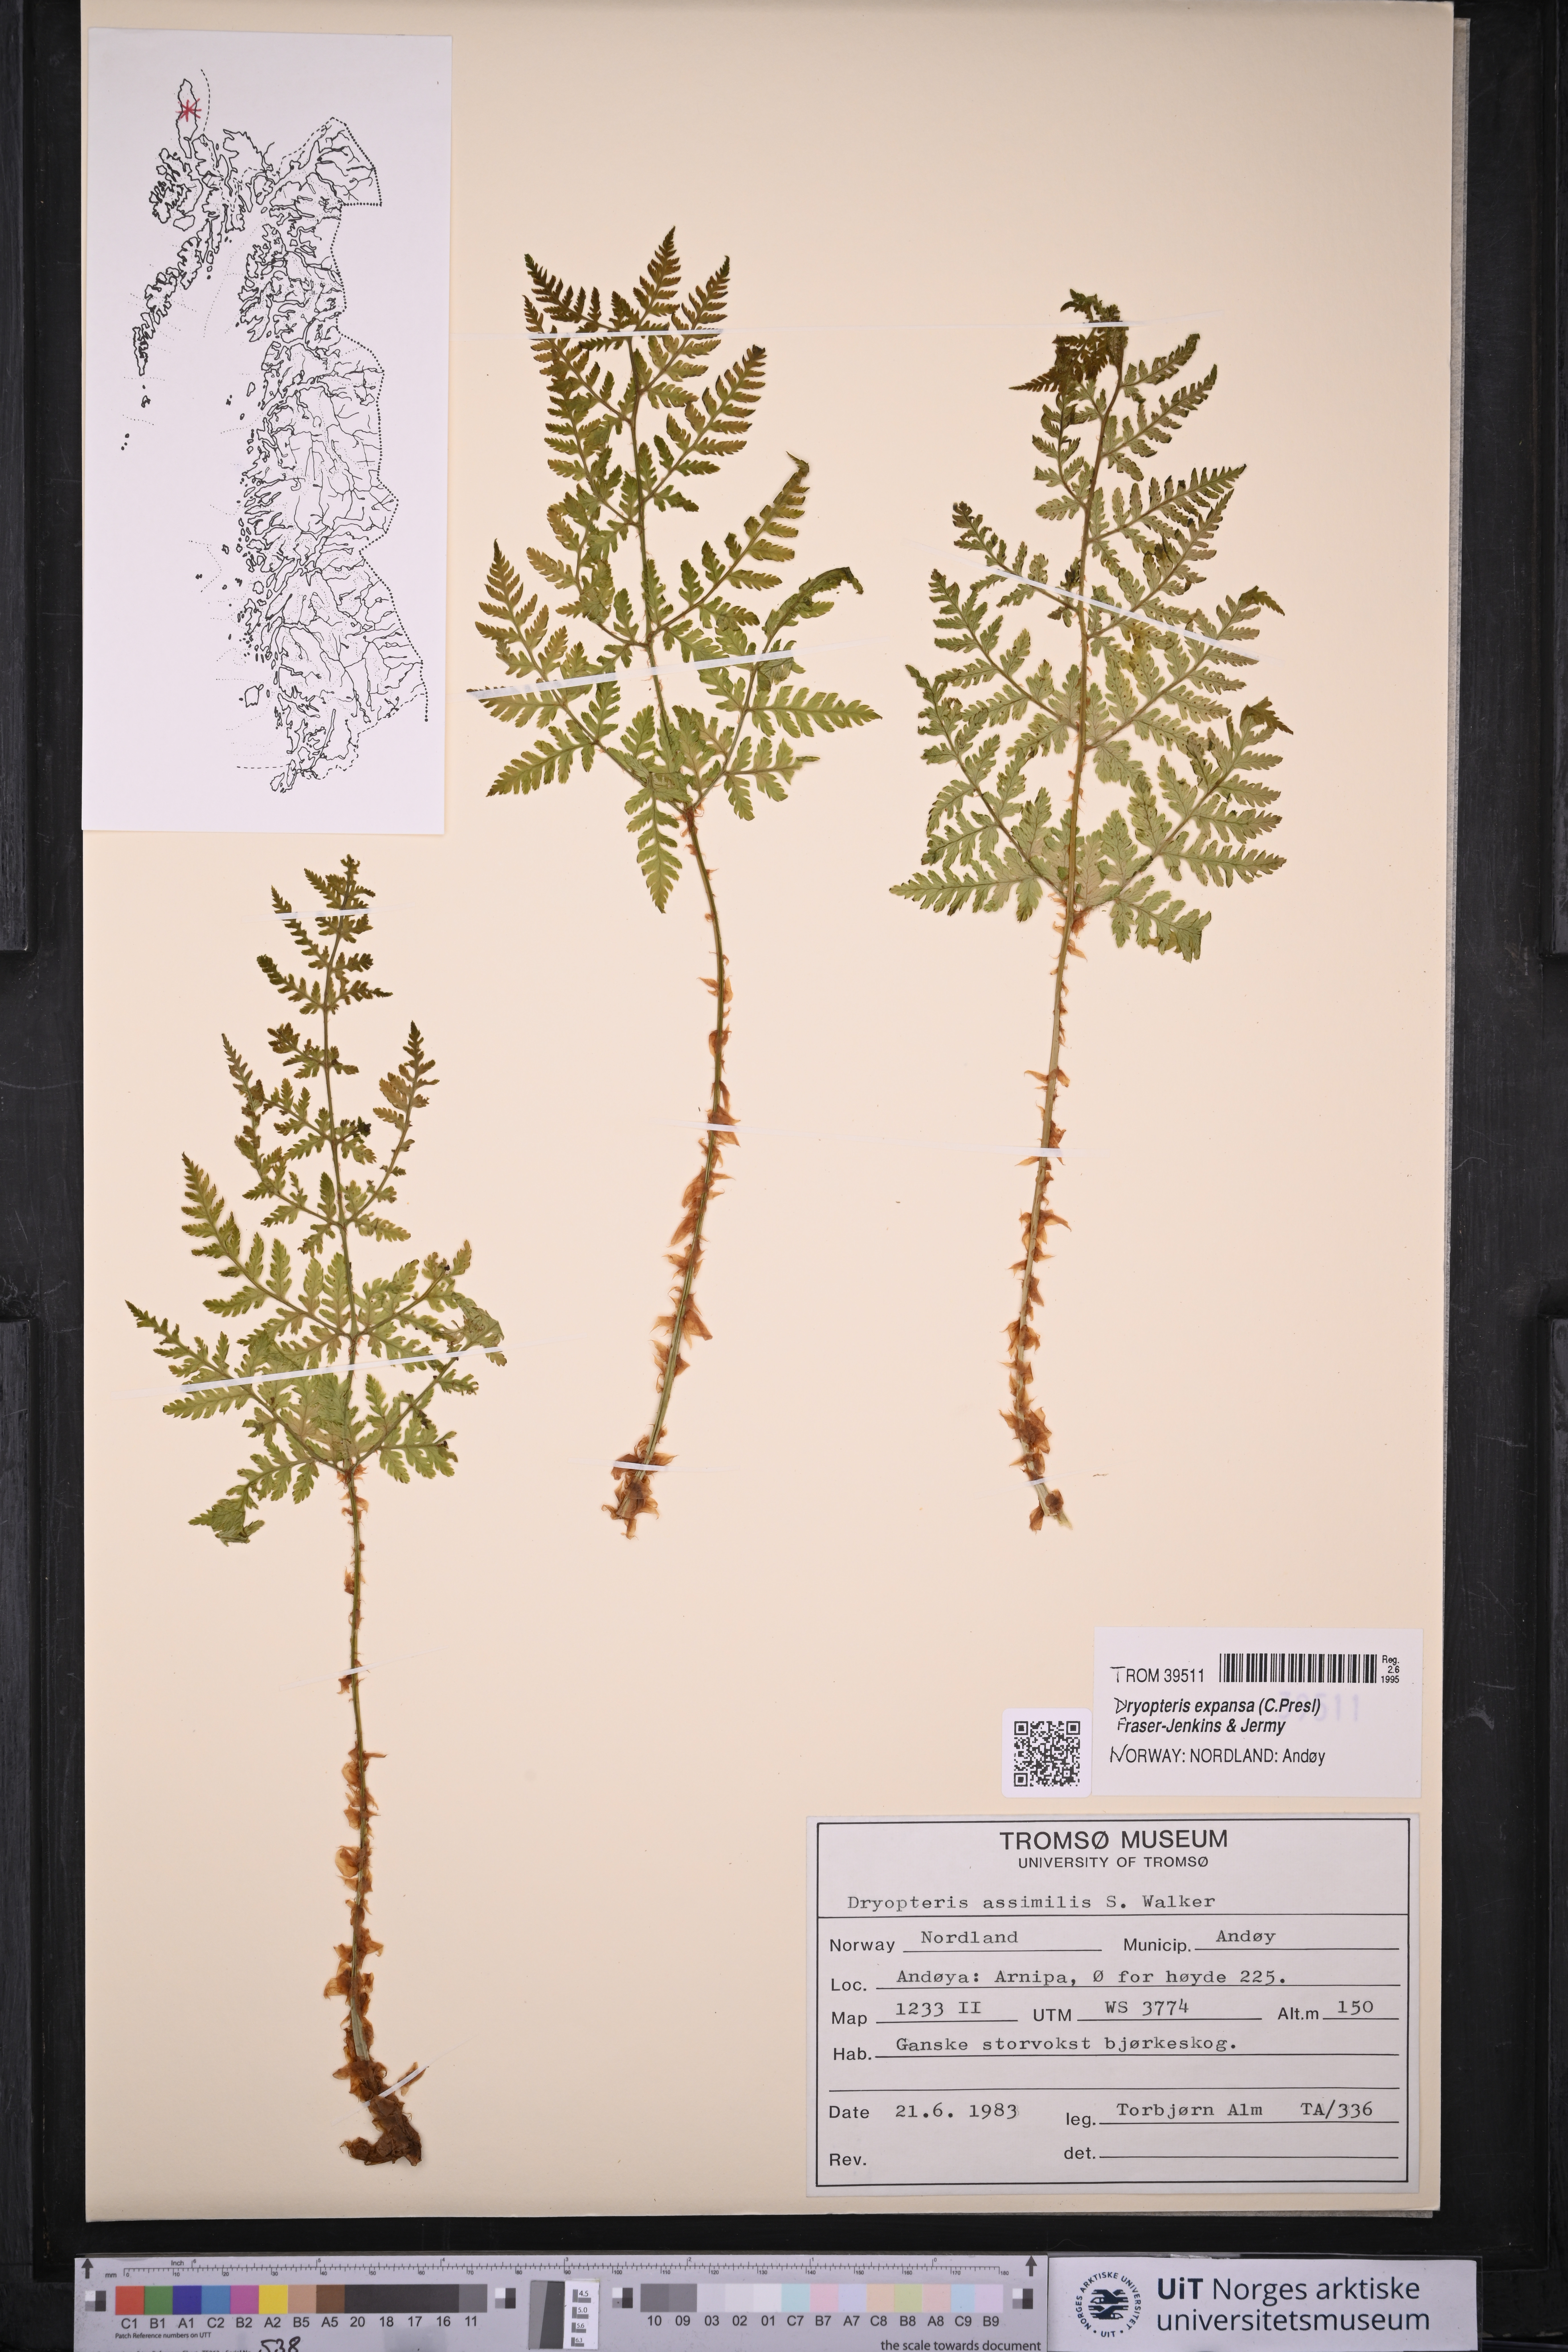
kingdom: Plantae
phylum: Tracheophyta
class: Polypodiopsida
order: Polypodiales
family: Dryopteridaceae
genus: Dryopteris
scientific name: Dryopteris expansa
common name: Northern buckler fern
